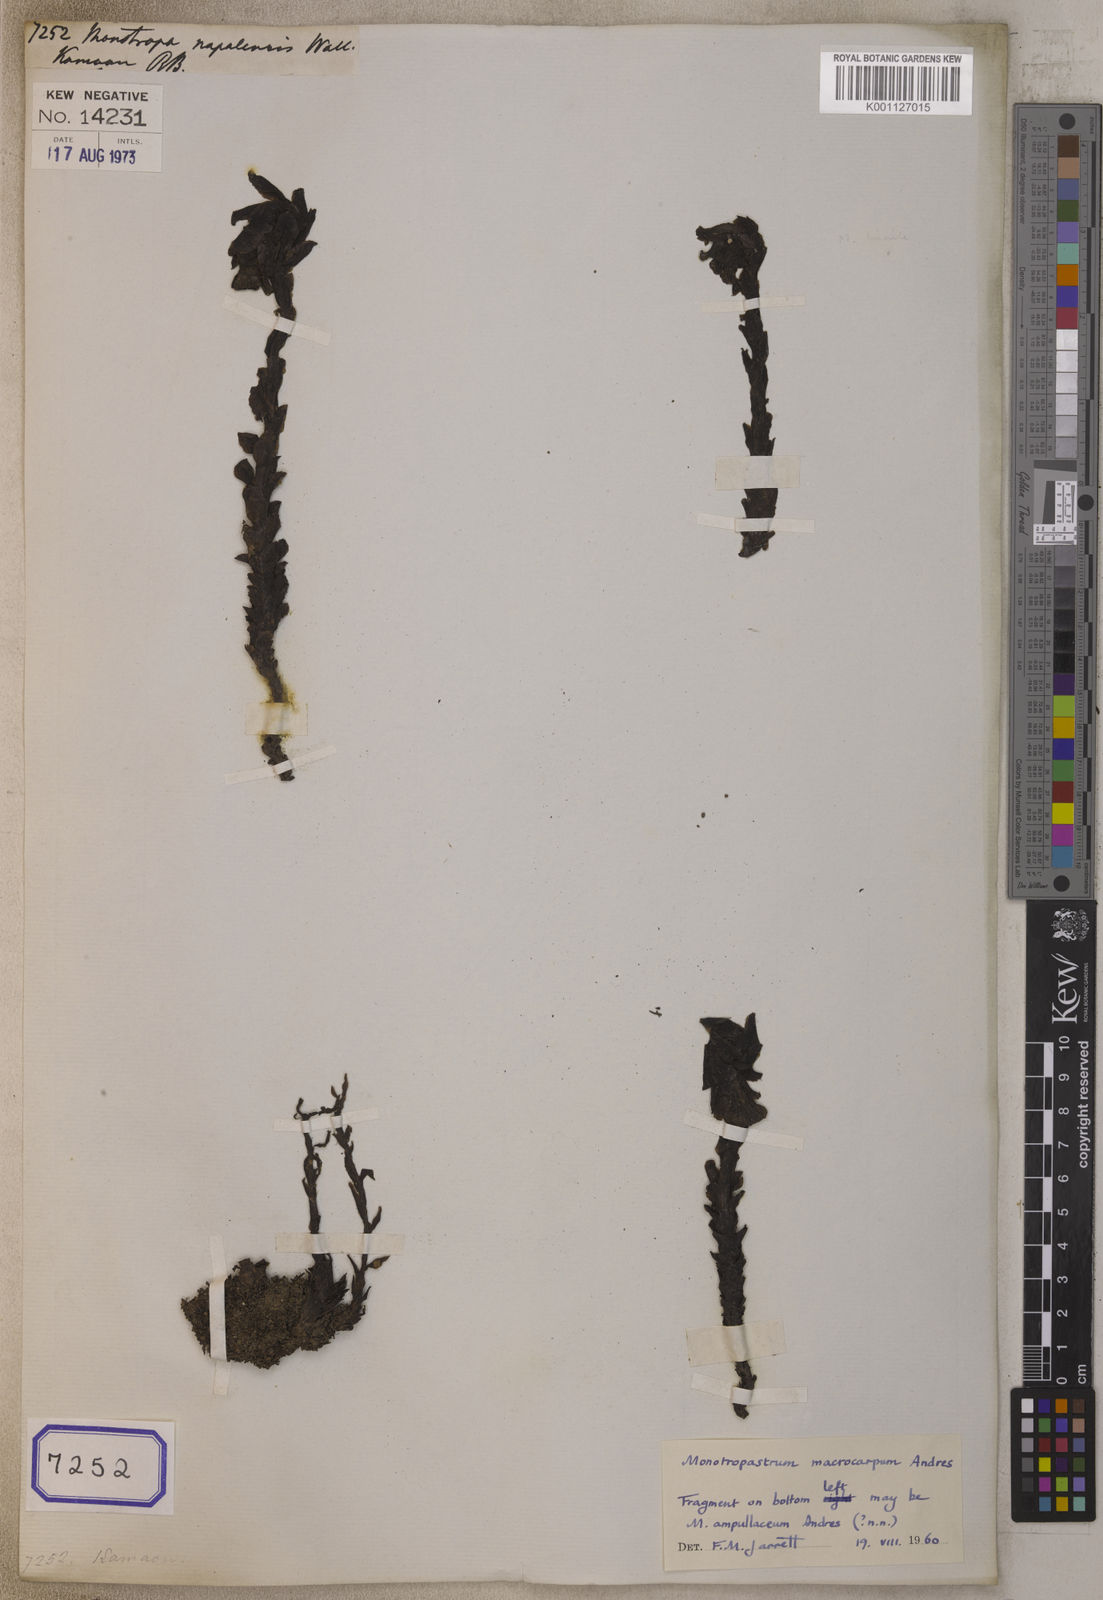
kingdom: Plantae
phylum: Tracheophyta
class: Magnoliopsida
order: Ericales
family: Ericaceae
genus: Hypopitys
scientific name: Hypopitys monotropa
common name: Yellow bird's-nest
